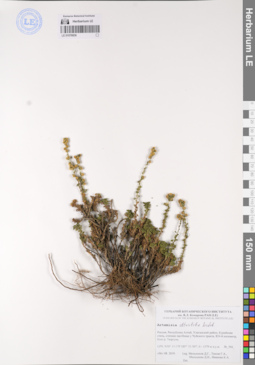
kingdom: Plantae
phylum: Tracheophyta
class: Magnoliopsida
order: Asterales
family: Asteraceae
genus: Artemisia
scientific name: Artemisia obtusiloba
